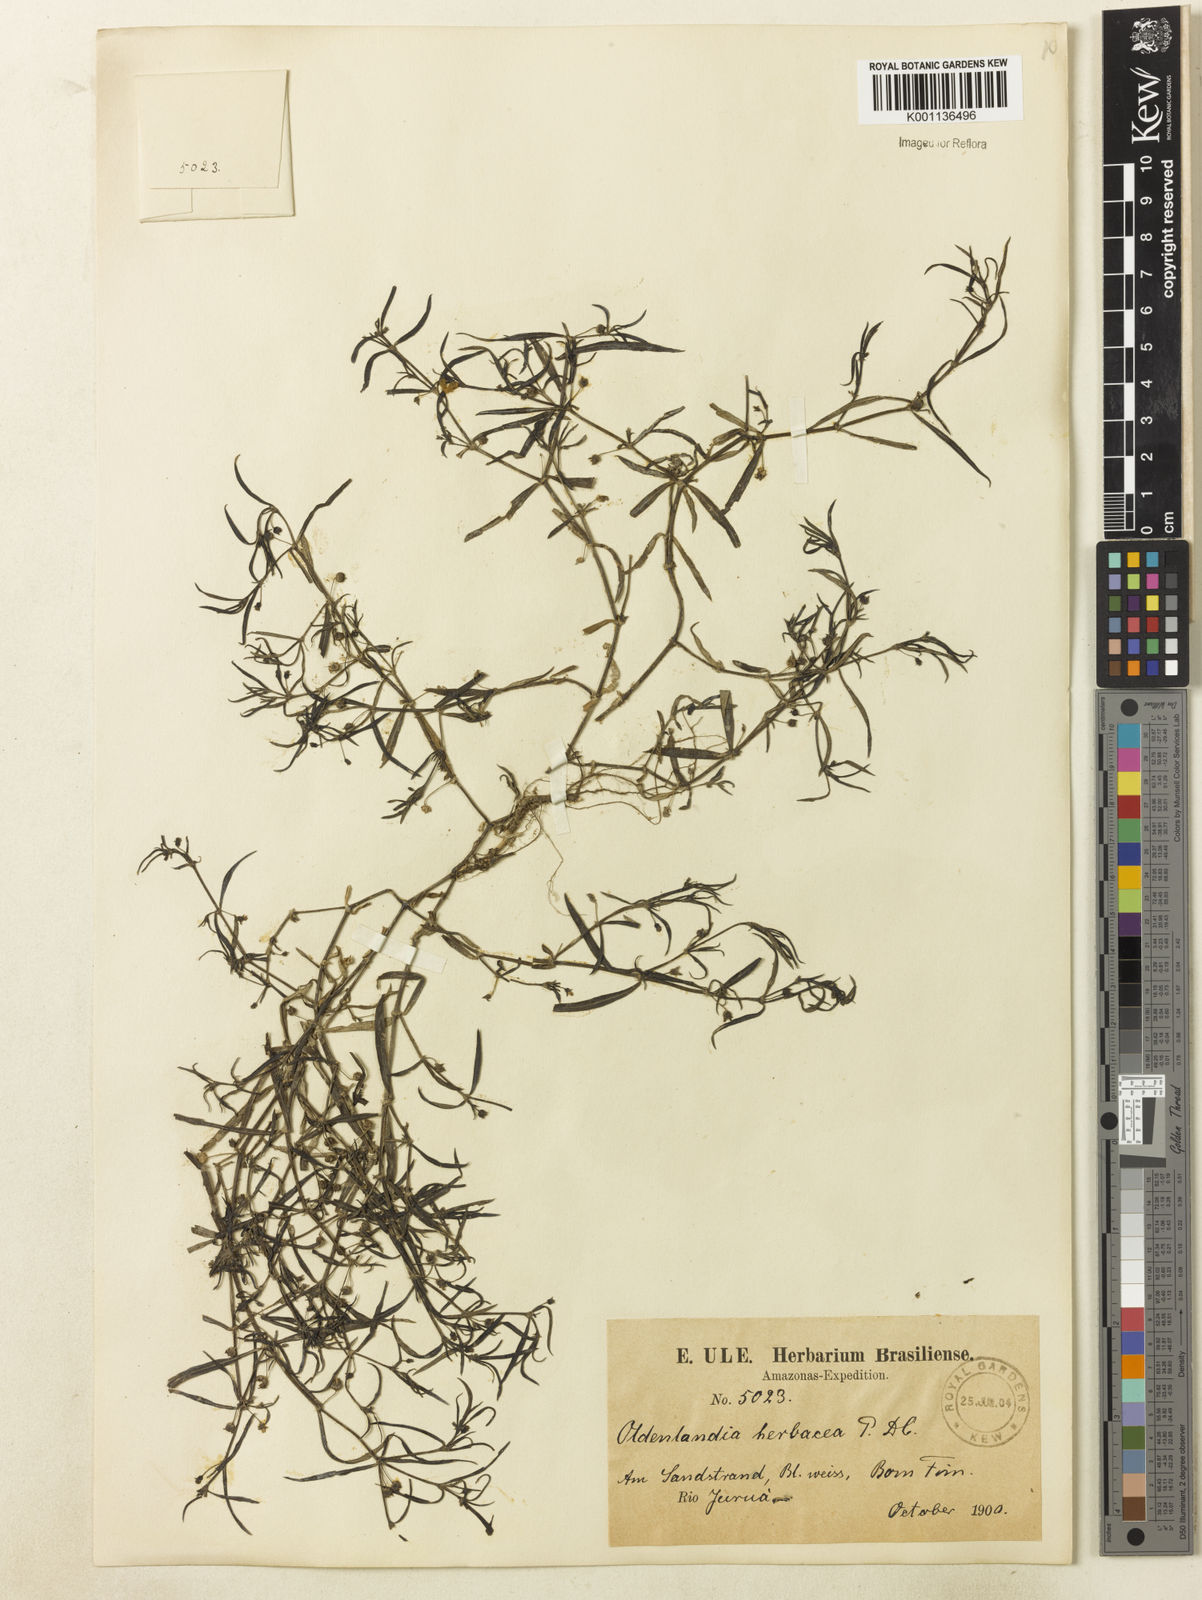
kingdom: Plantae
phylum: Tracheophyta
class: Magnoliopsida
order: Gentianales
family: Rubiaceae
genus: Oldenlandia
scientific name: Oldenlandia lancifolia
